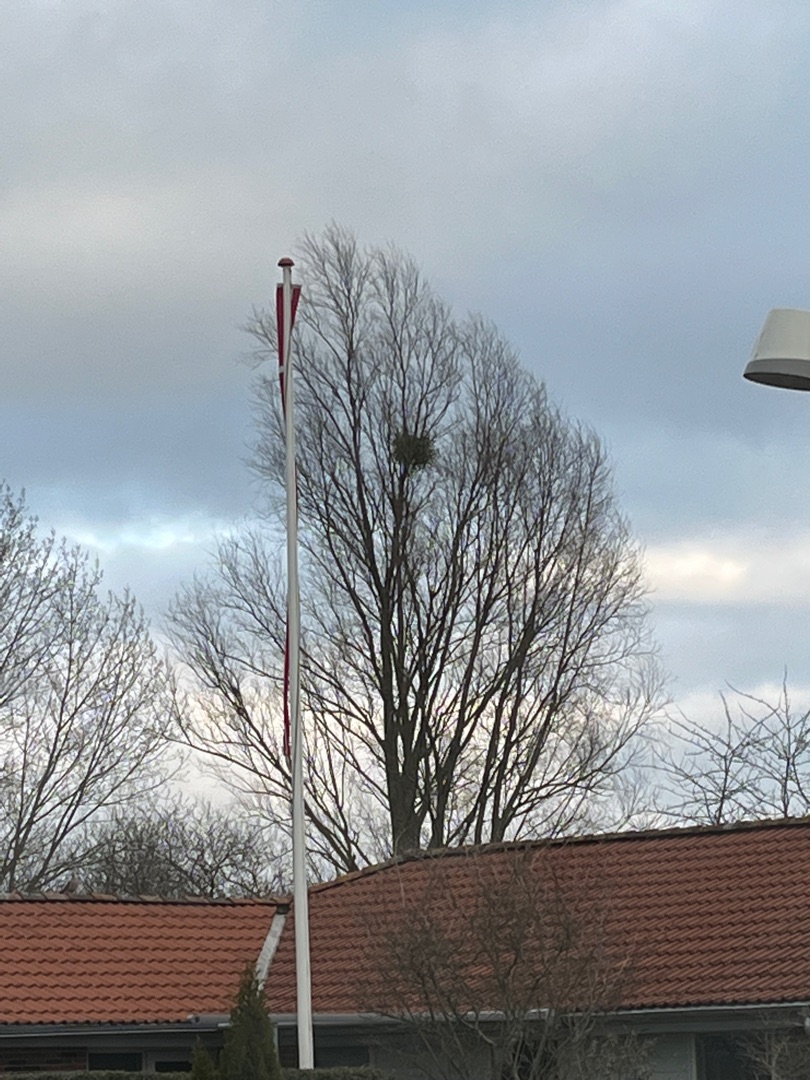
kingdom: Plantae
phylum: Tracheophyta
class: Magnoliopsida
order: Santalales
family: Viscaceae
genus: Viscum
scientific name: Viscum album
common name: Mistelten
